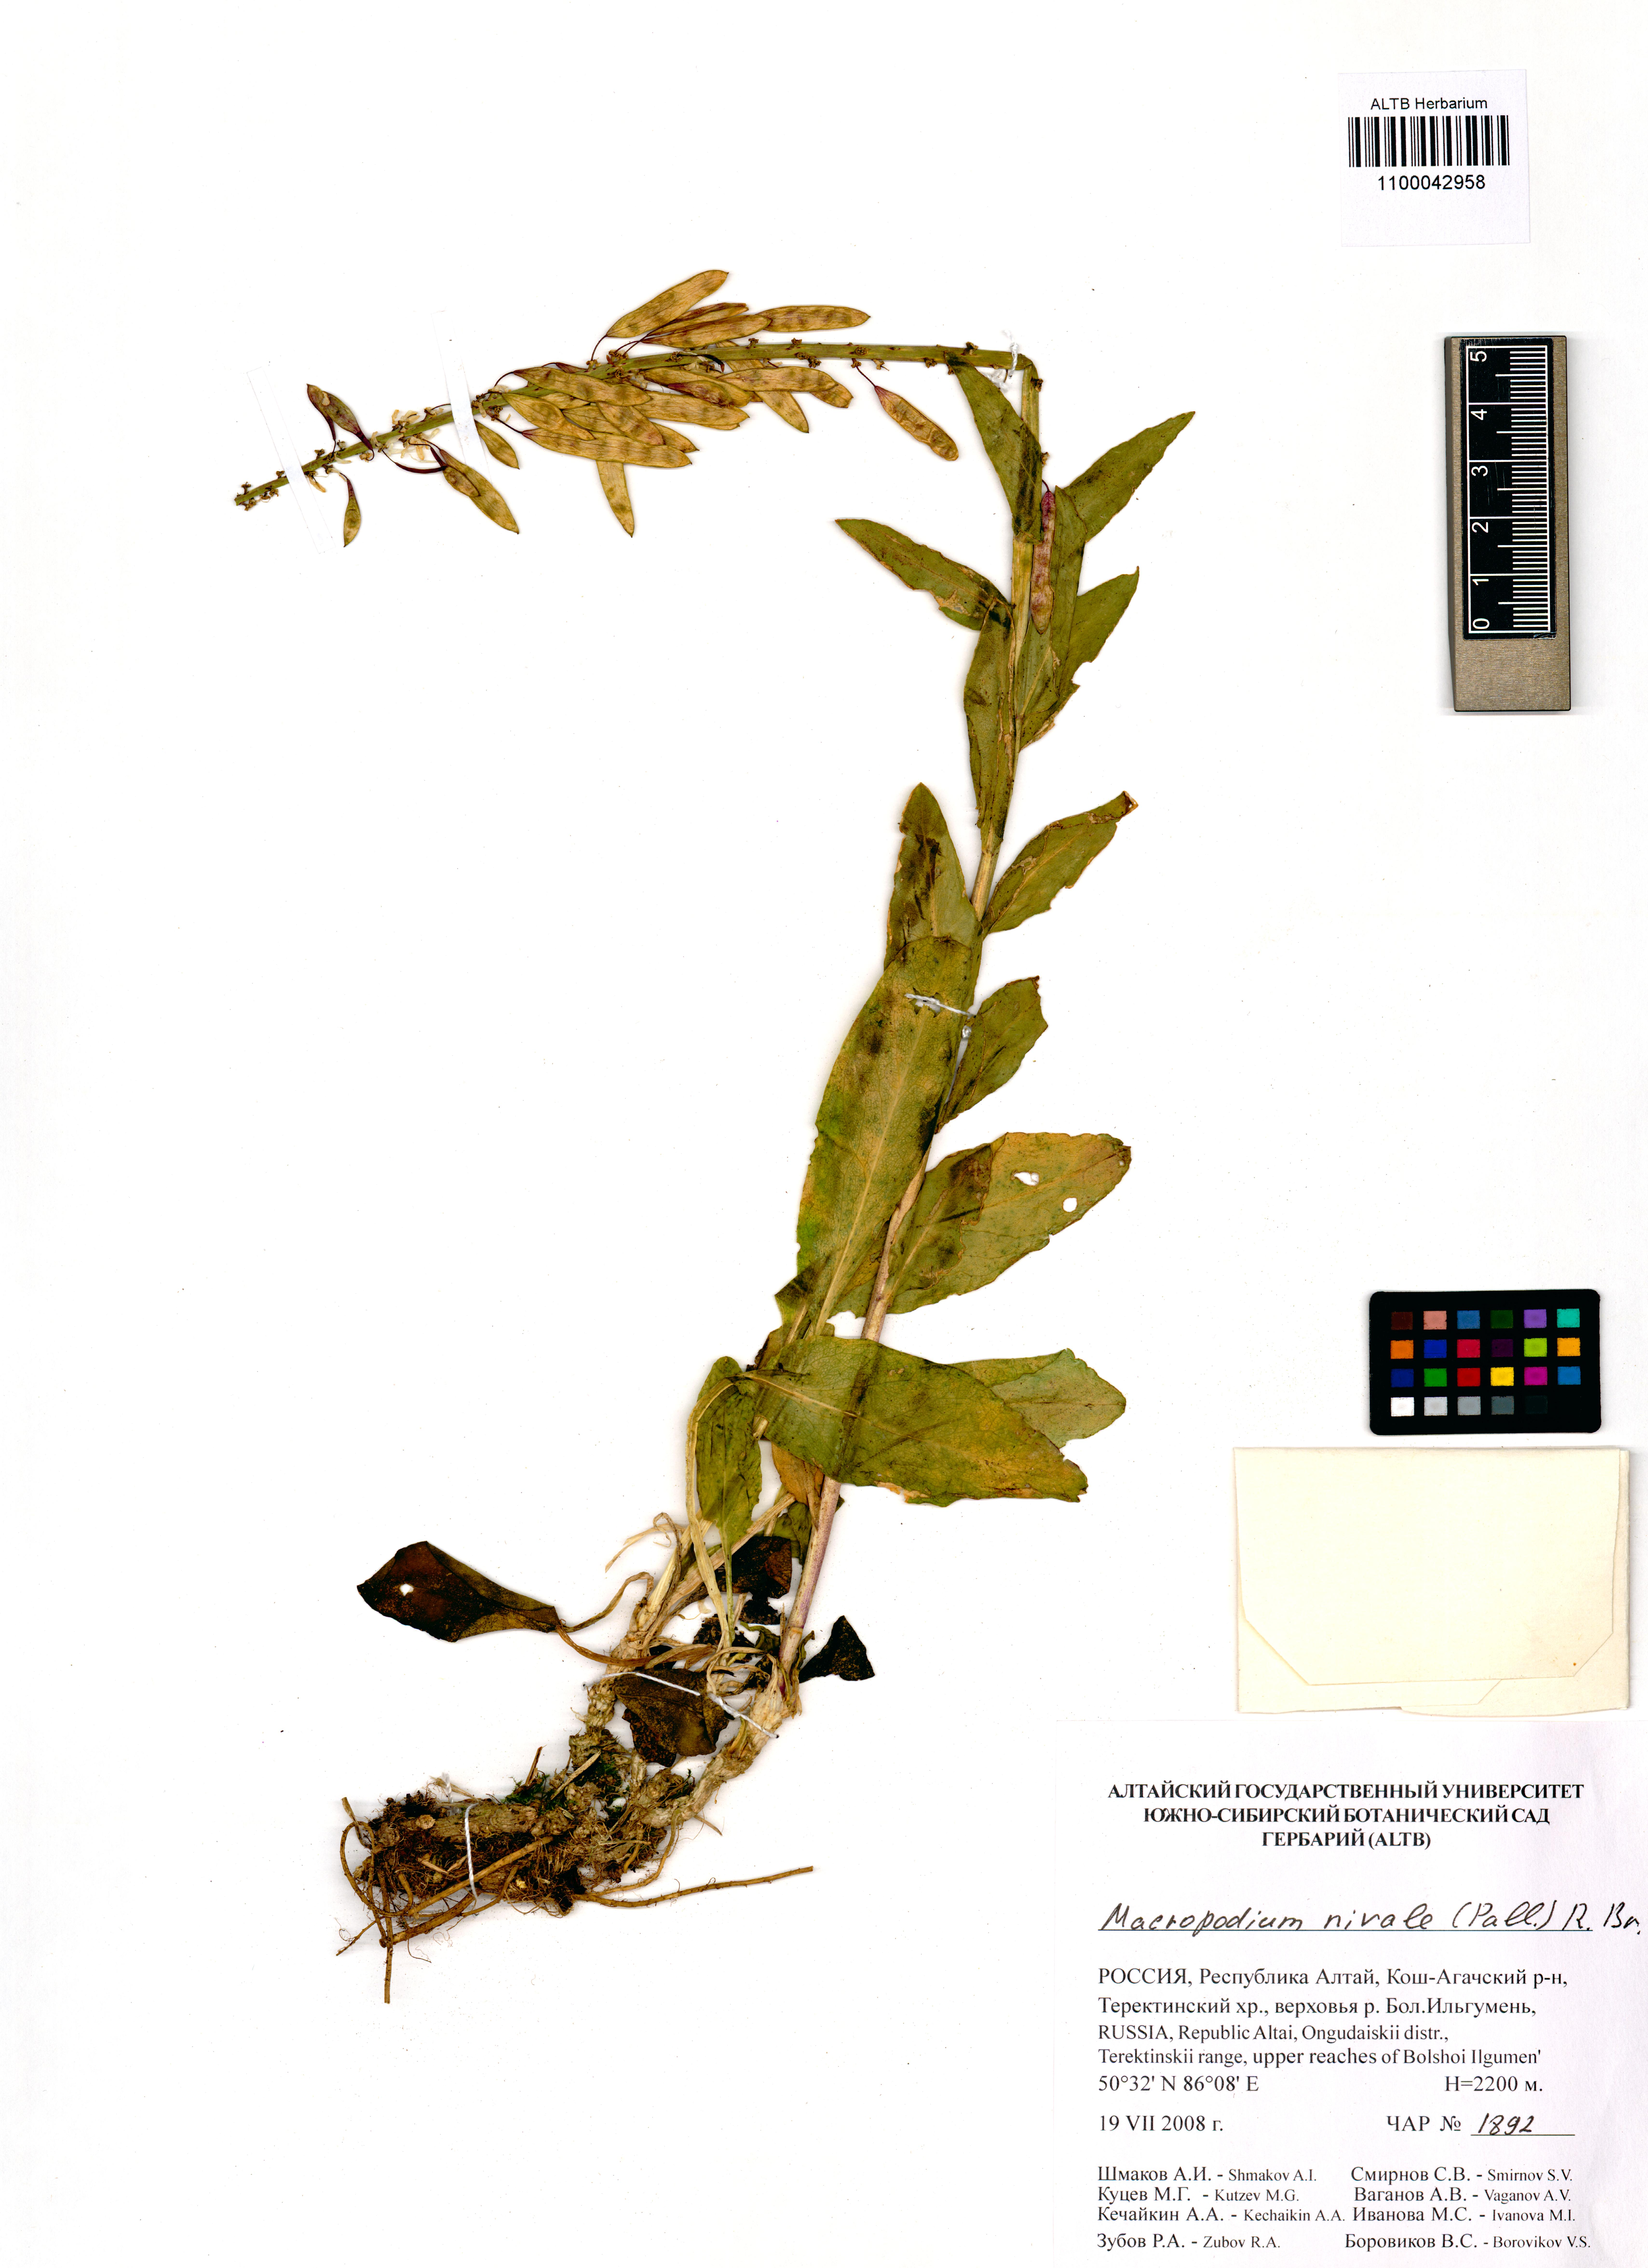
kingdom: Plantae
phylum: Tracheophyta
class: Magnoliopsida
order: Brassicales
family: Brassicaceae
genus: Macropodium
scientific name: Macropodium nivale
